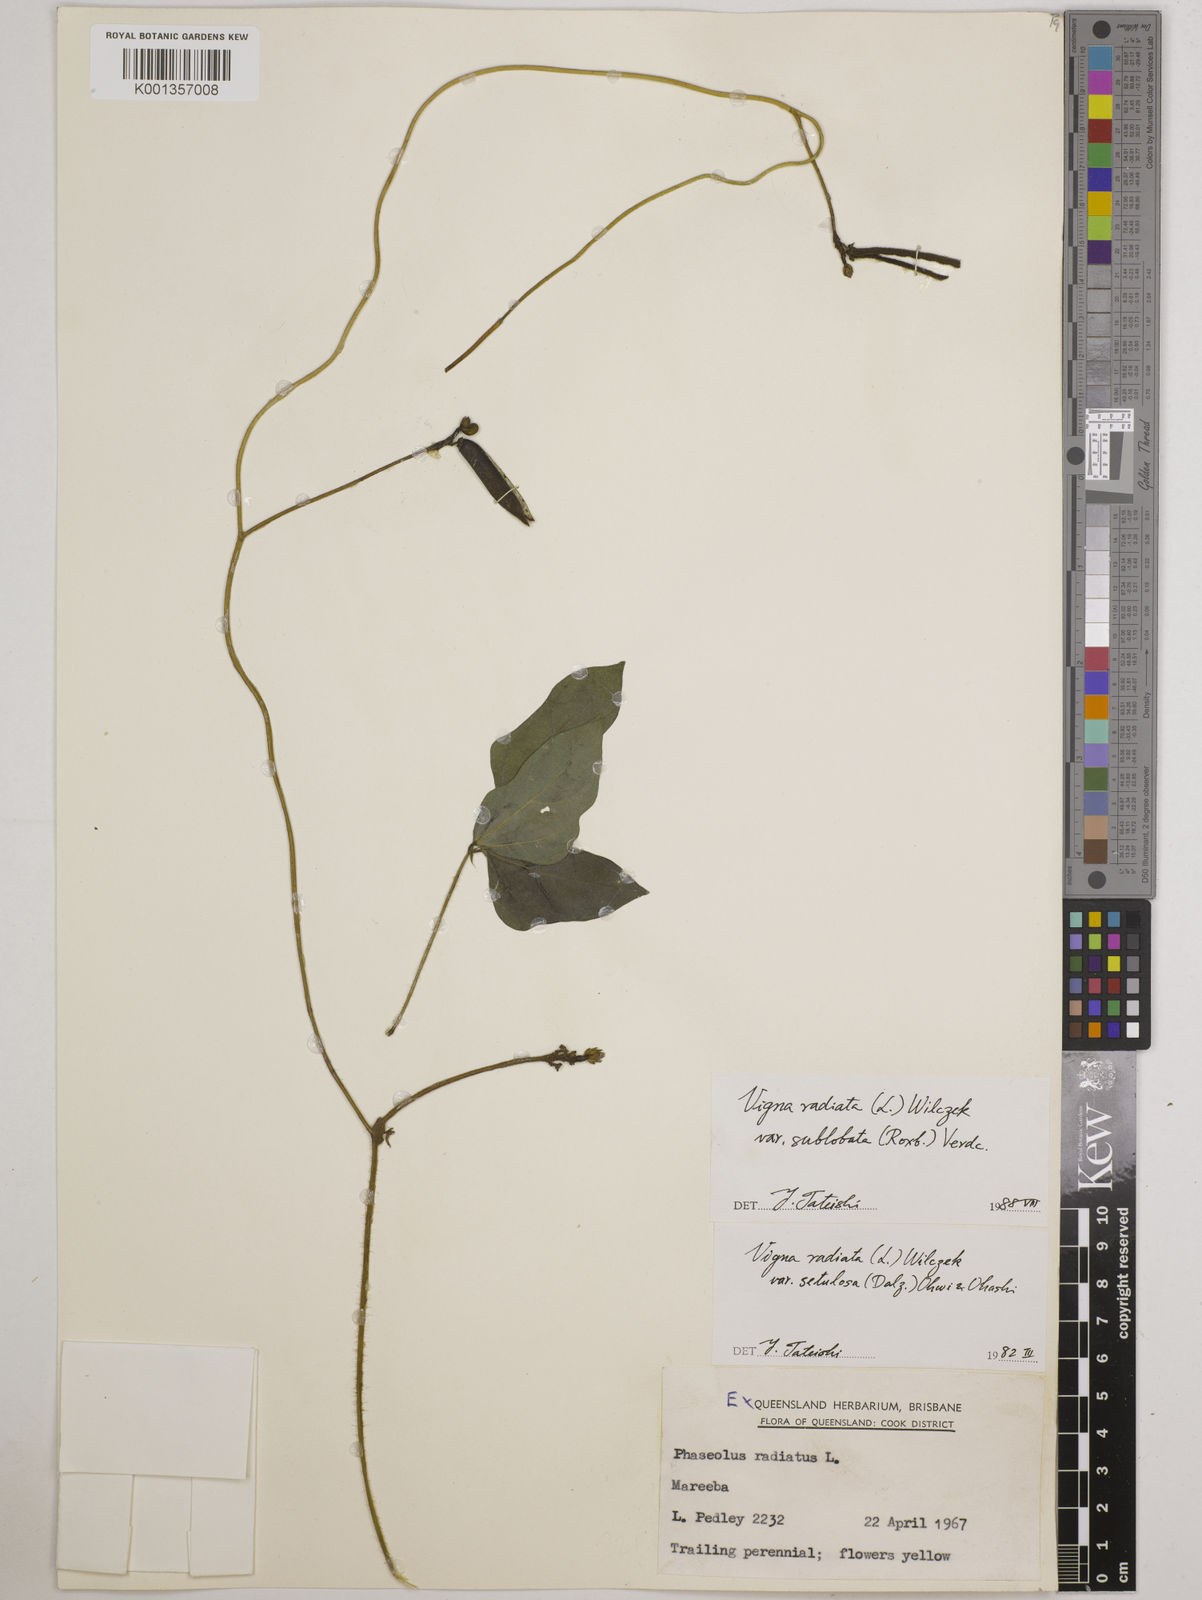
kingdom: Plantae
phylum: Tracheophyta
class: Magnoliopsida
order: Fabales
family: Fabaceae
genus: Vigna
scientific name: Vigna radiata
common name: Mung-bean
